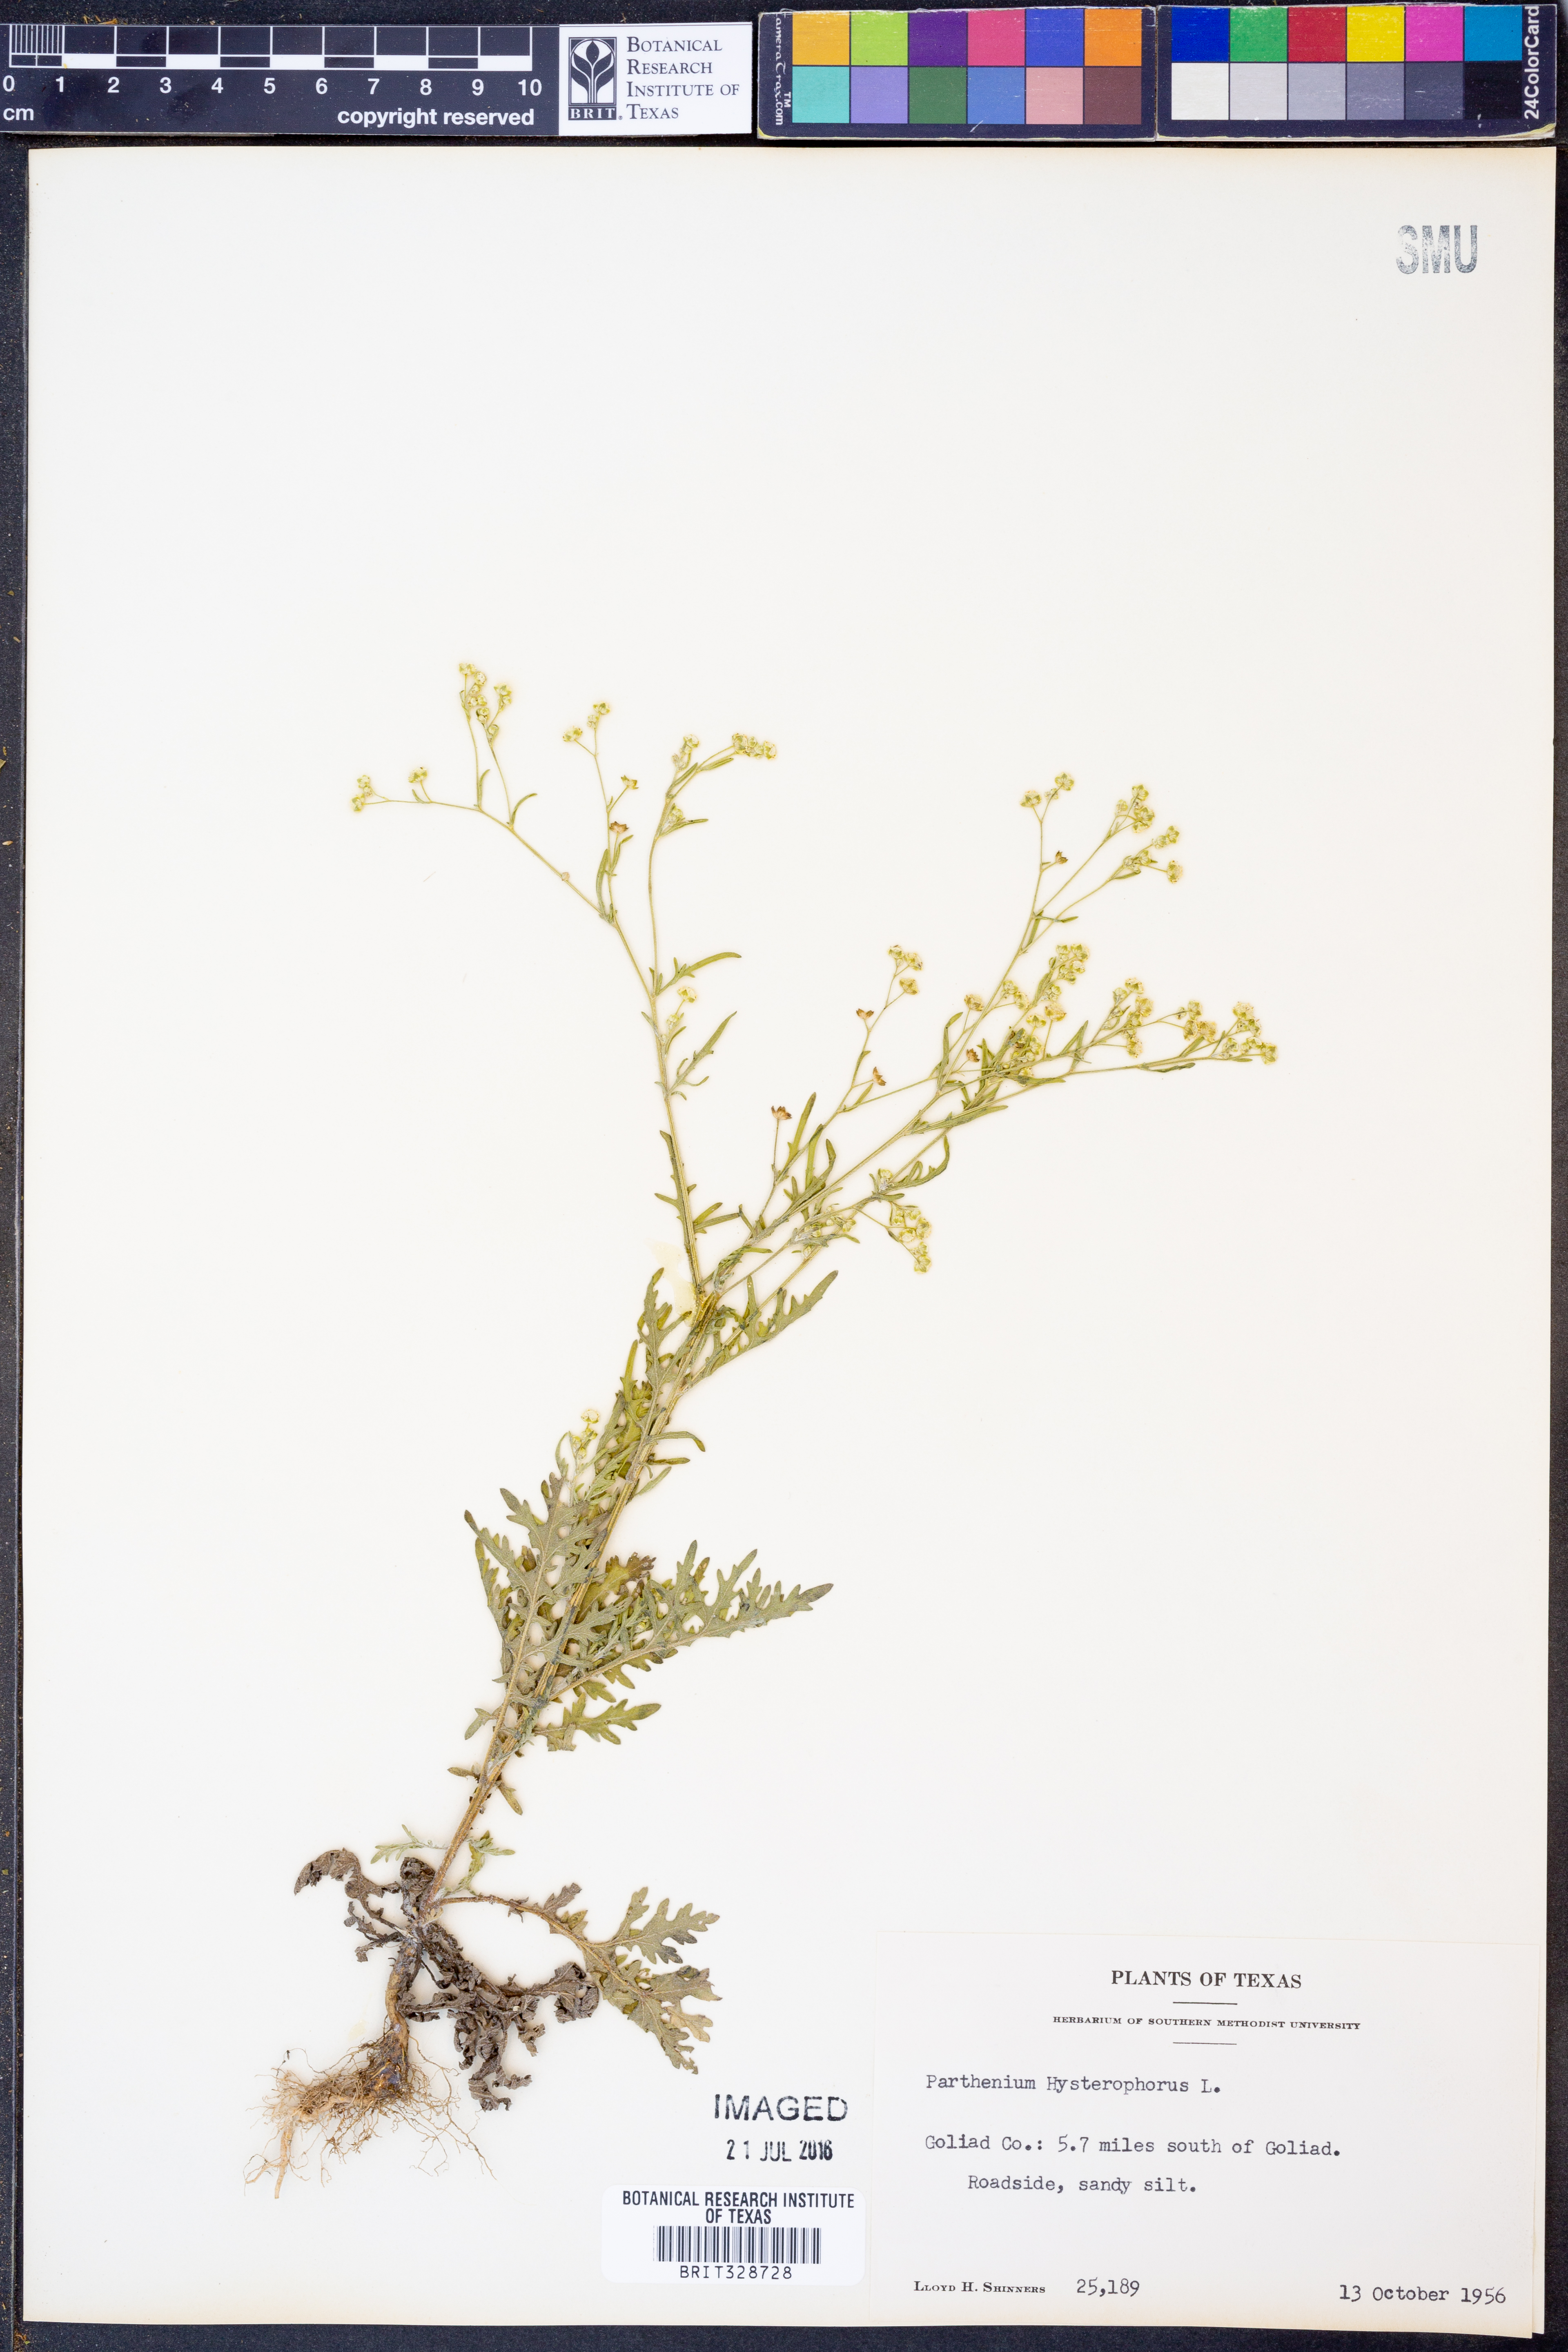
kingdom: Plantae
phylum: Tracheophyta
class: Magnoliopsida
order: Asterales
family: Asteraceae
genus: Parthenium
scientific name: Parthenium hysterophorus
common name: Santa maria feverfew
